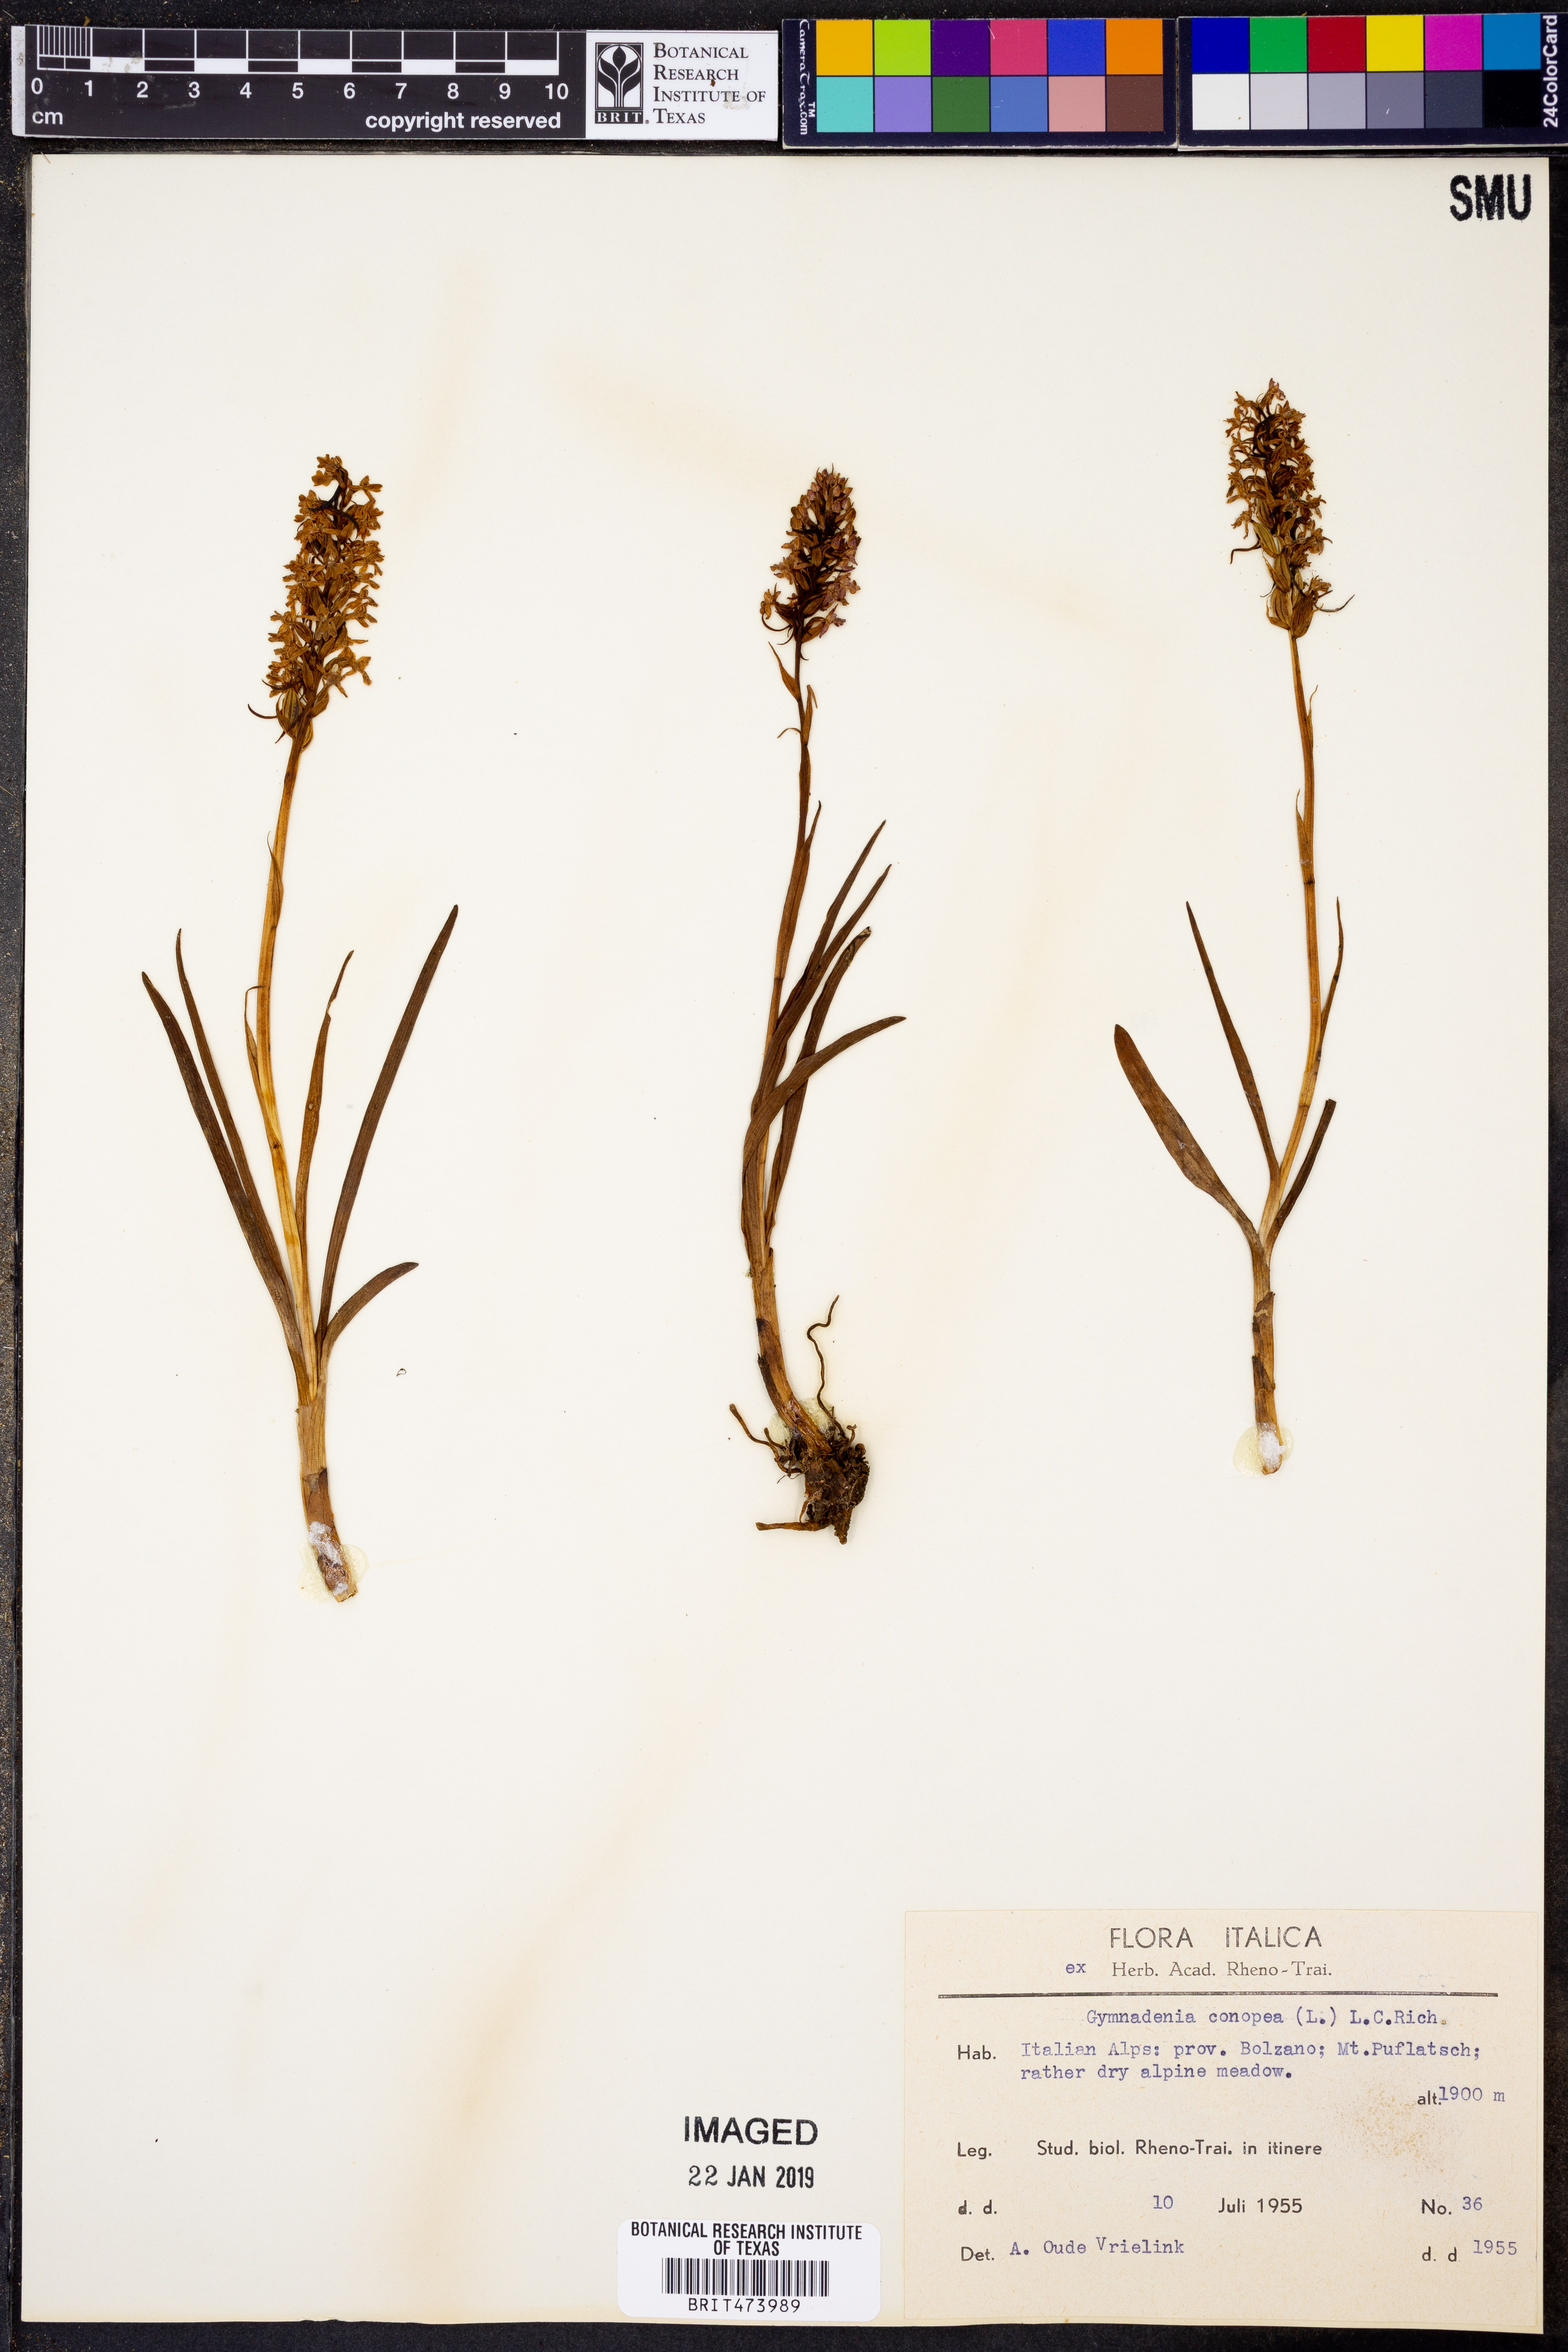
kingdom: Plantae
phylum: Tracheophyta
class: Liliopsida
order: Asparagales
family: Orchidaceae
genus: Gymnadenia
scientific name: Gymnadenia conopea
